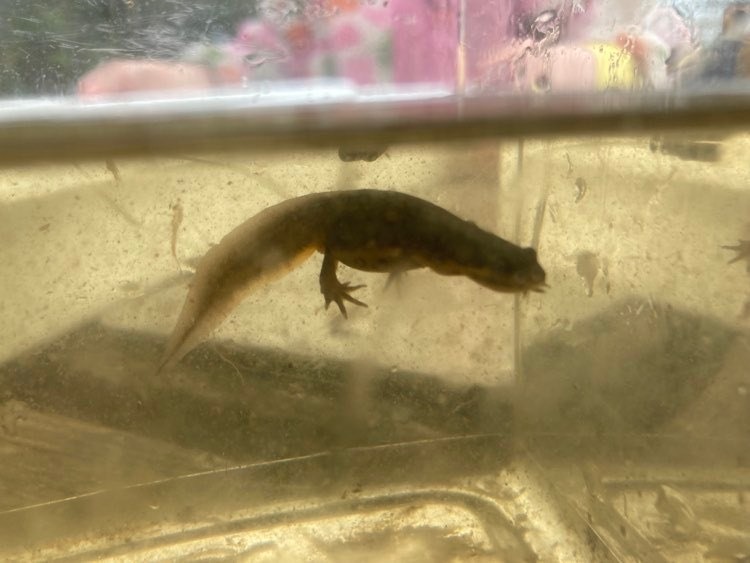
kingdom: Animalia
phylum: Chordata
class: Amphibia
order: Caudata
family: Salamandridae
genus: Lissotriton
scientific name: Lissotriton vulgaris
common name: Lille vandsalamander
